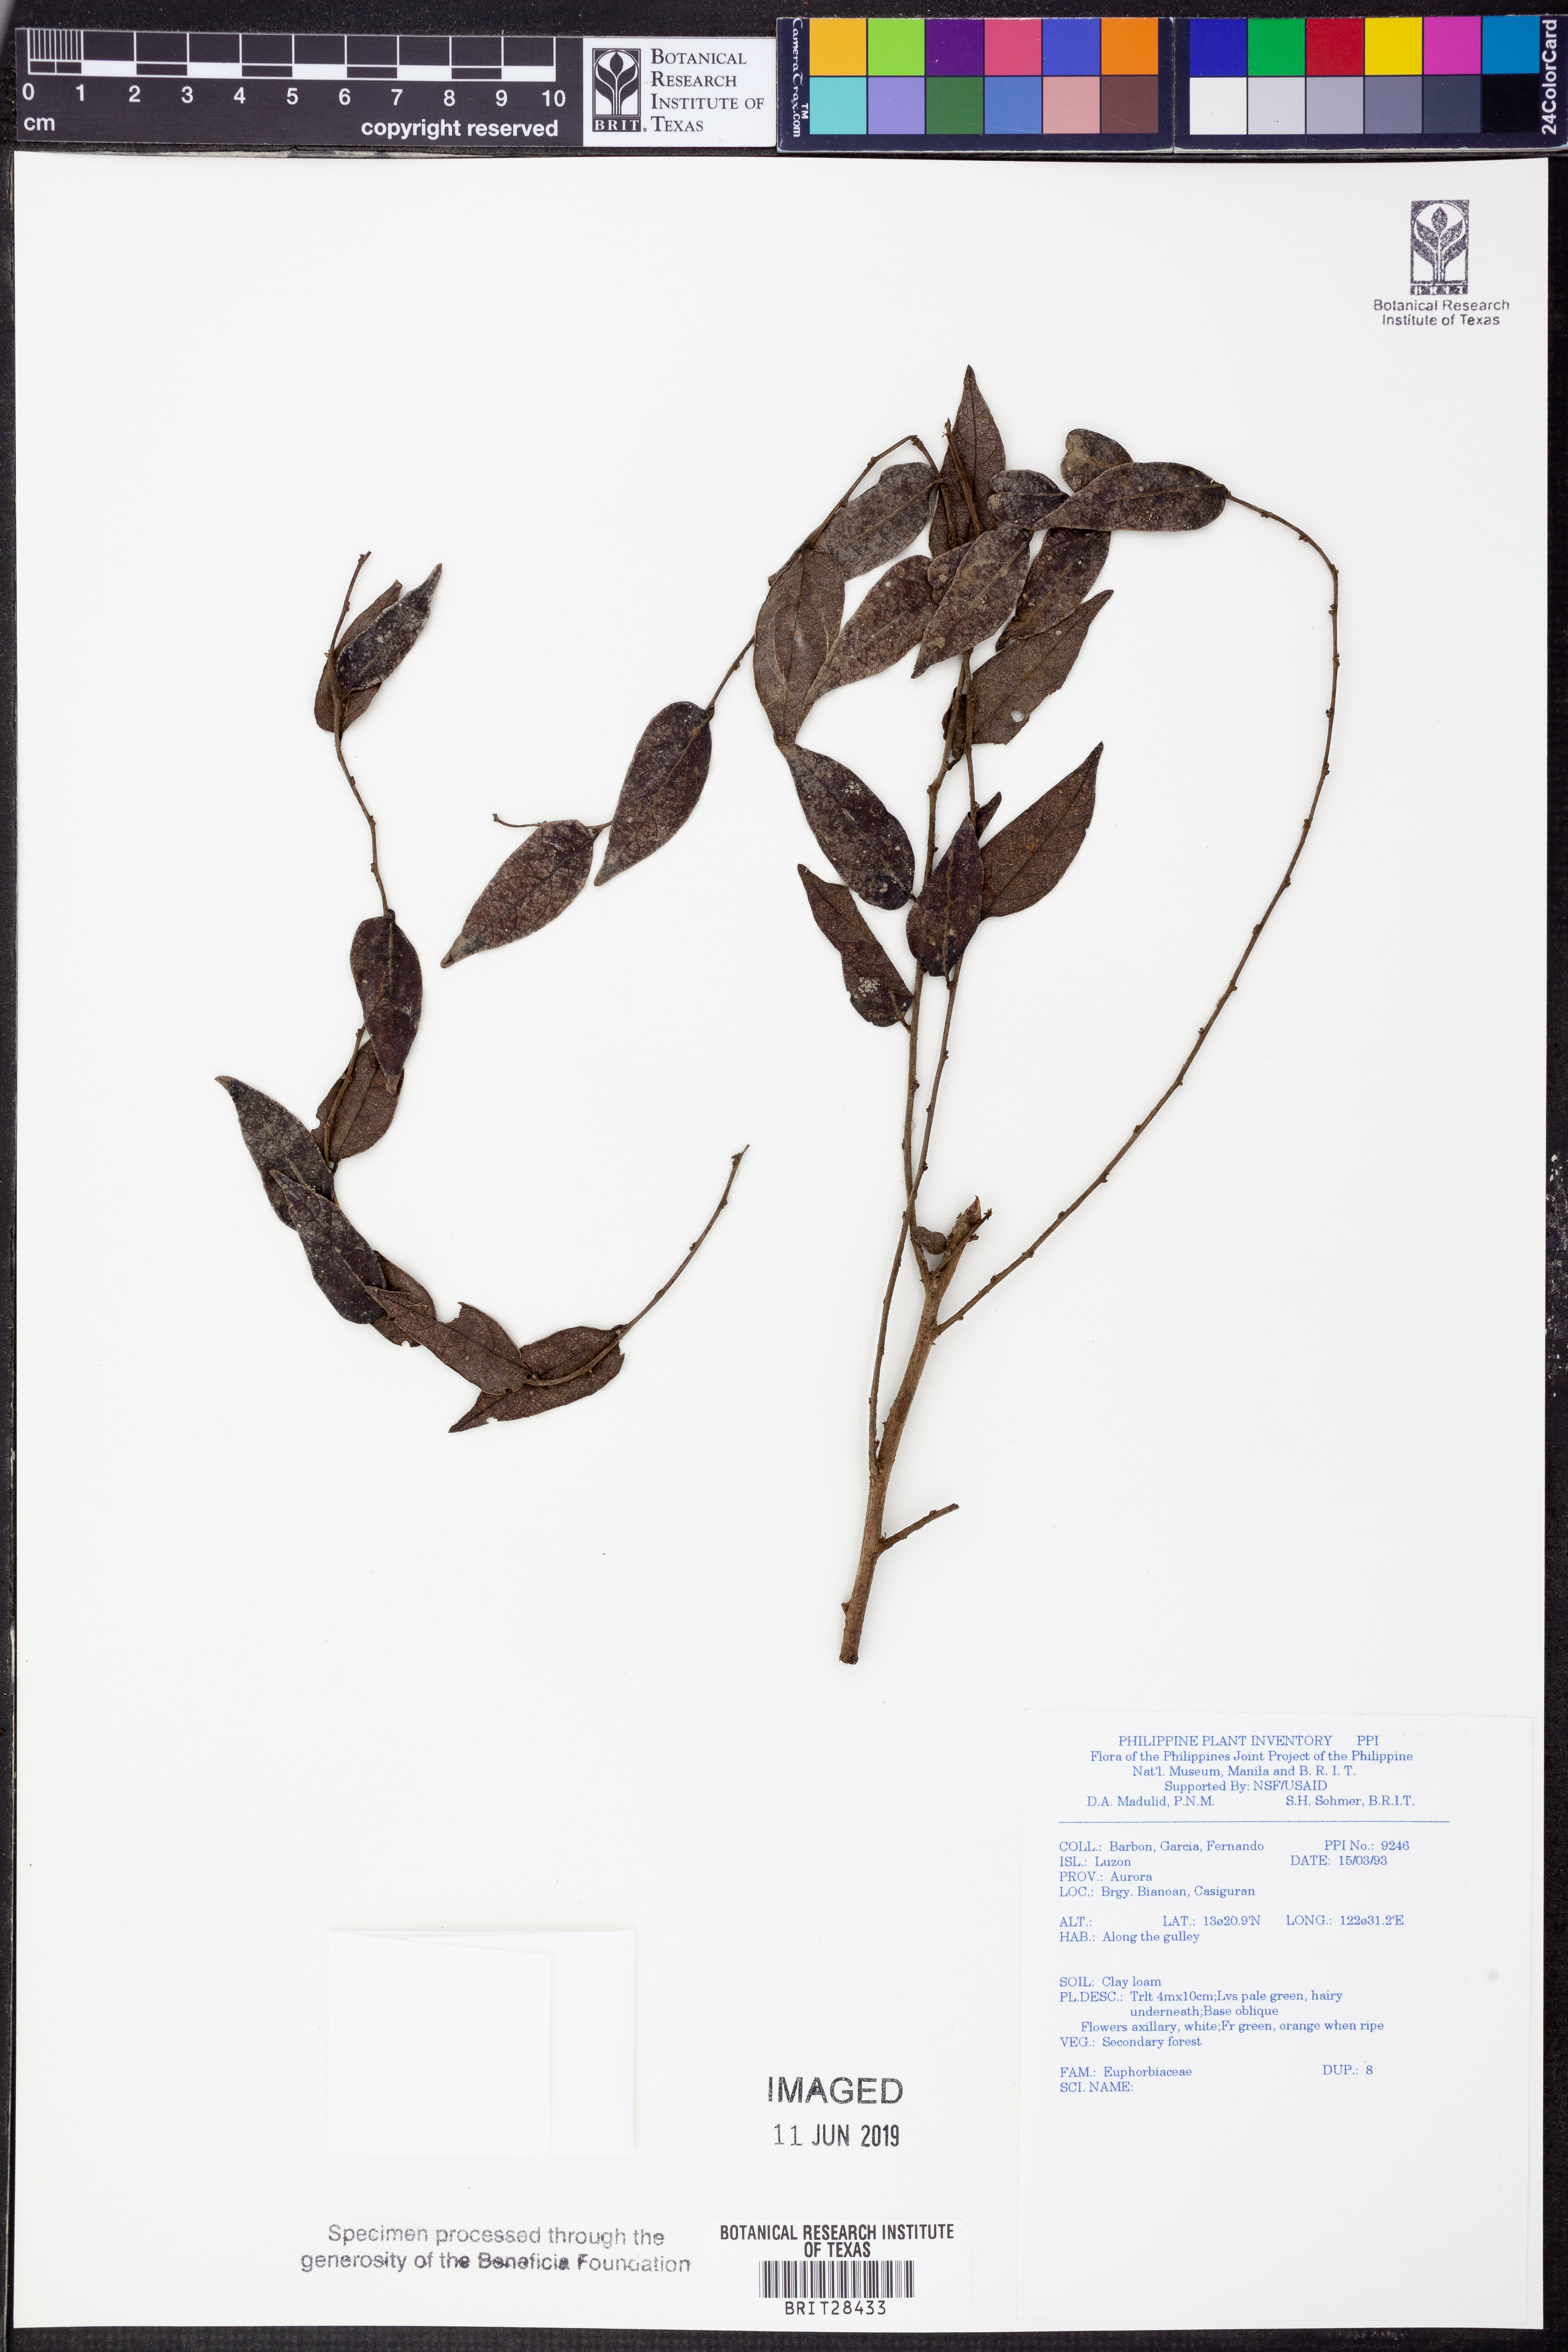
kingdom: Plantae
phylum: Tracheophyta
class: Magnoliopsida
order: Malpighiales
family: Euphorbiaceae
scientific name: Euphorbiaceae
